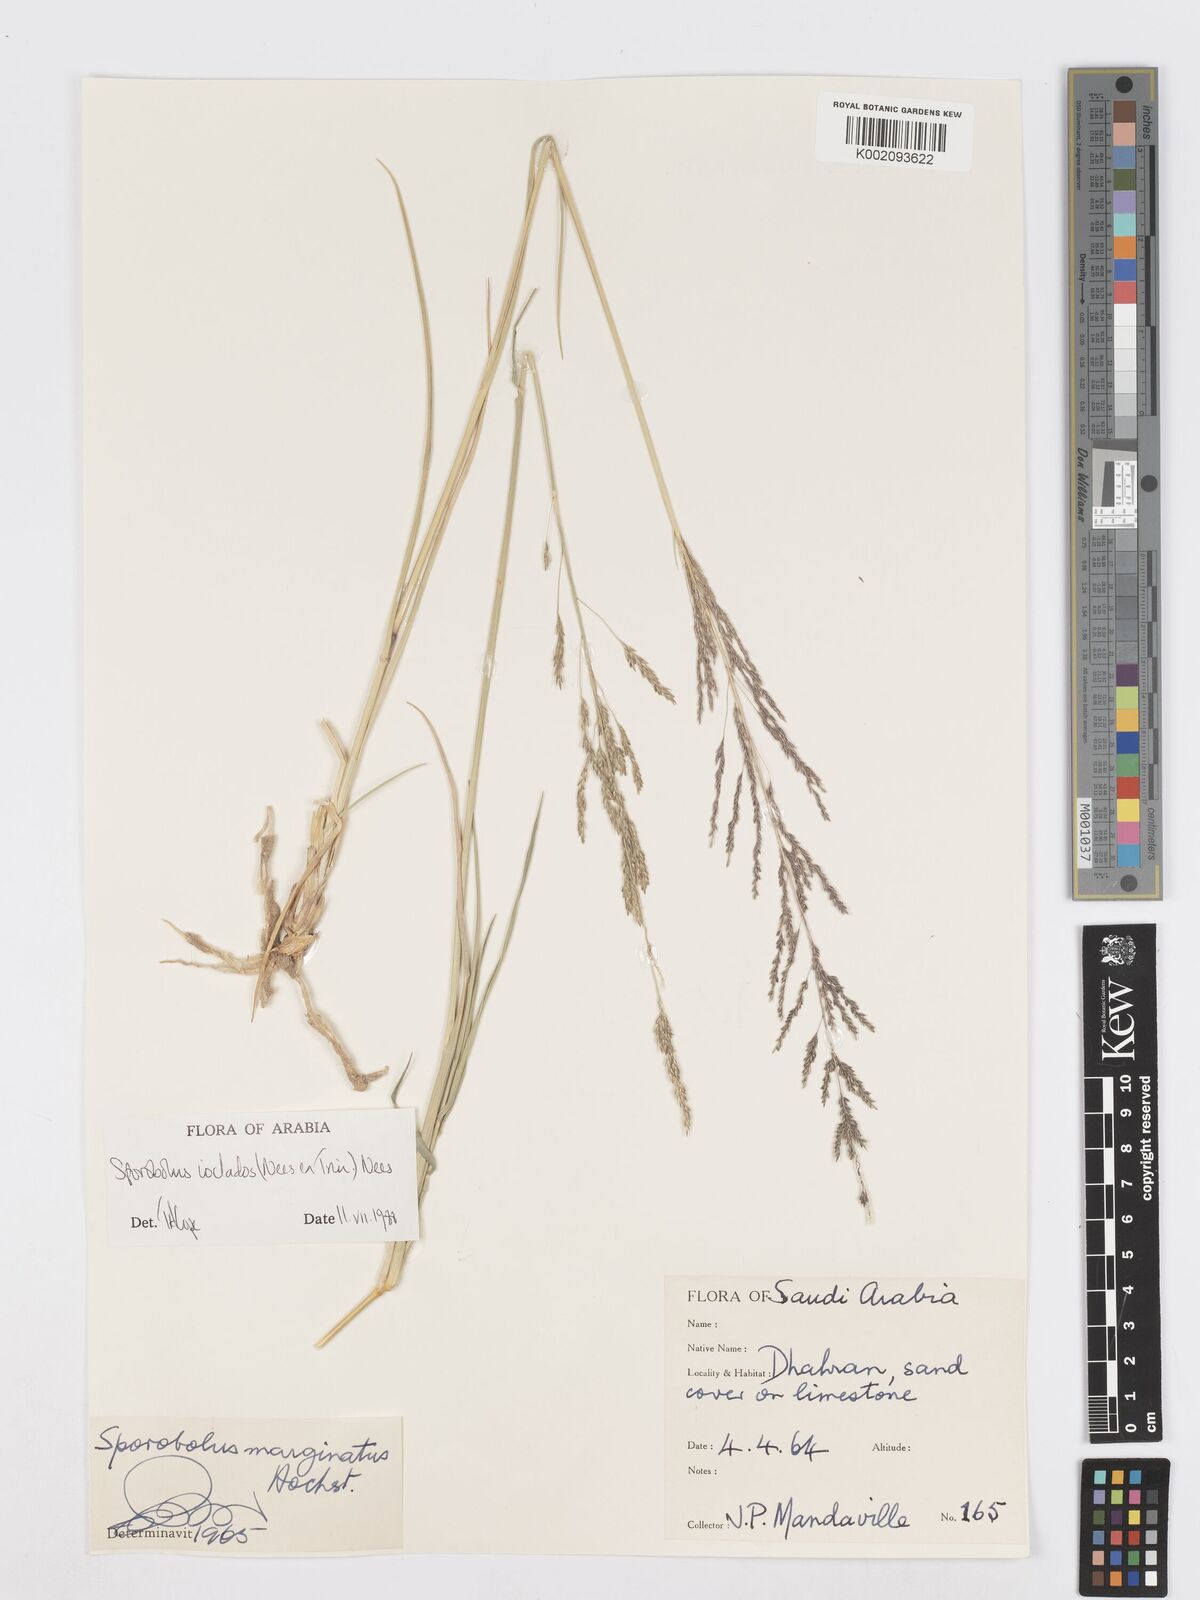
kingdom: Plantae
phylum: Tracheophyta
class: Liliopsida
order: Poales
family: Poaceae
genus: Sporobolus
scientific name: Sporobolus ioclados
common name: Pan dropseed
